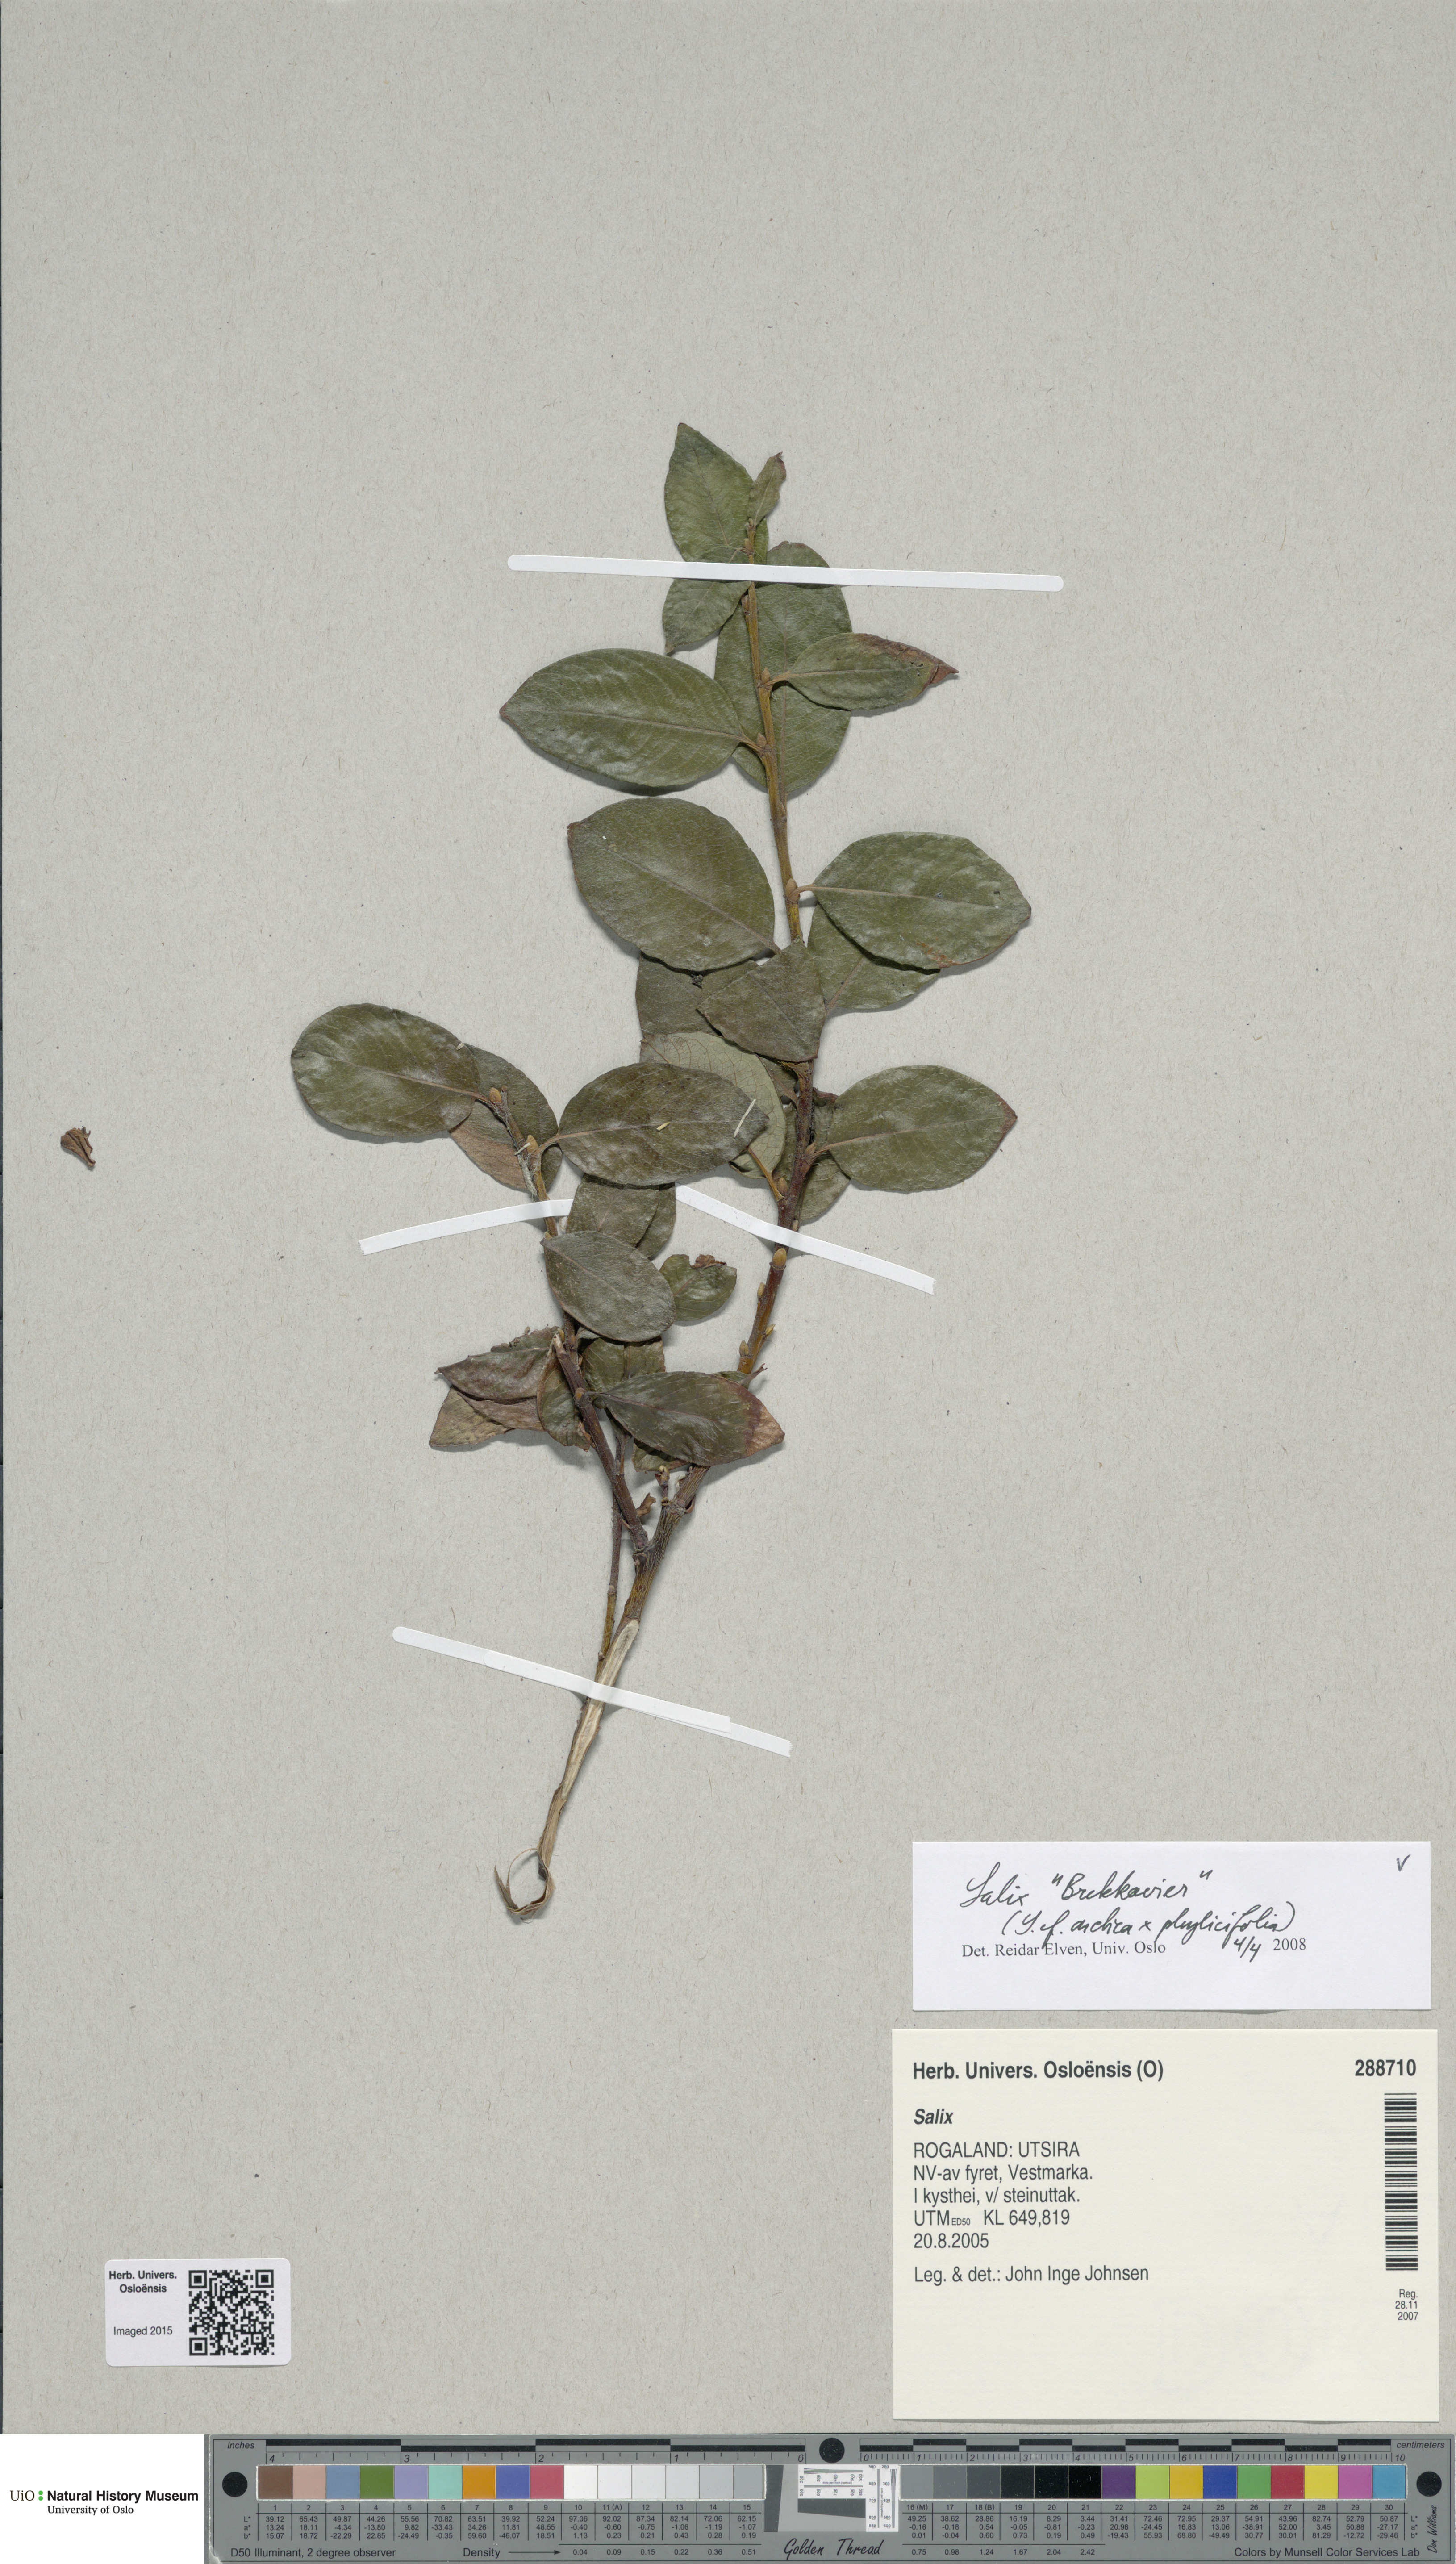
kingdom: Plantae
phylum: Tracheophyta
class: Magnoliopsida
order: Malpighiales
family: Salicaceae
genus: Salix
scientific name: Salix
